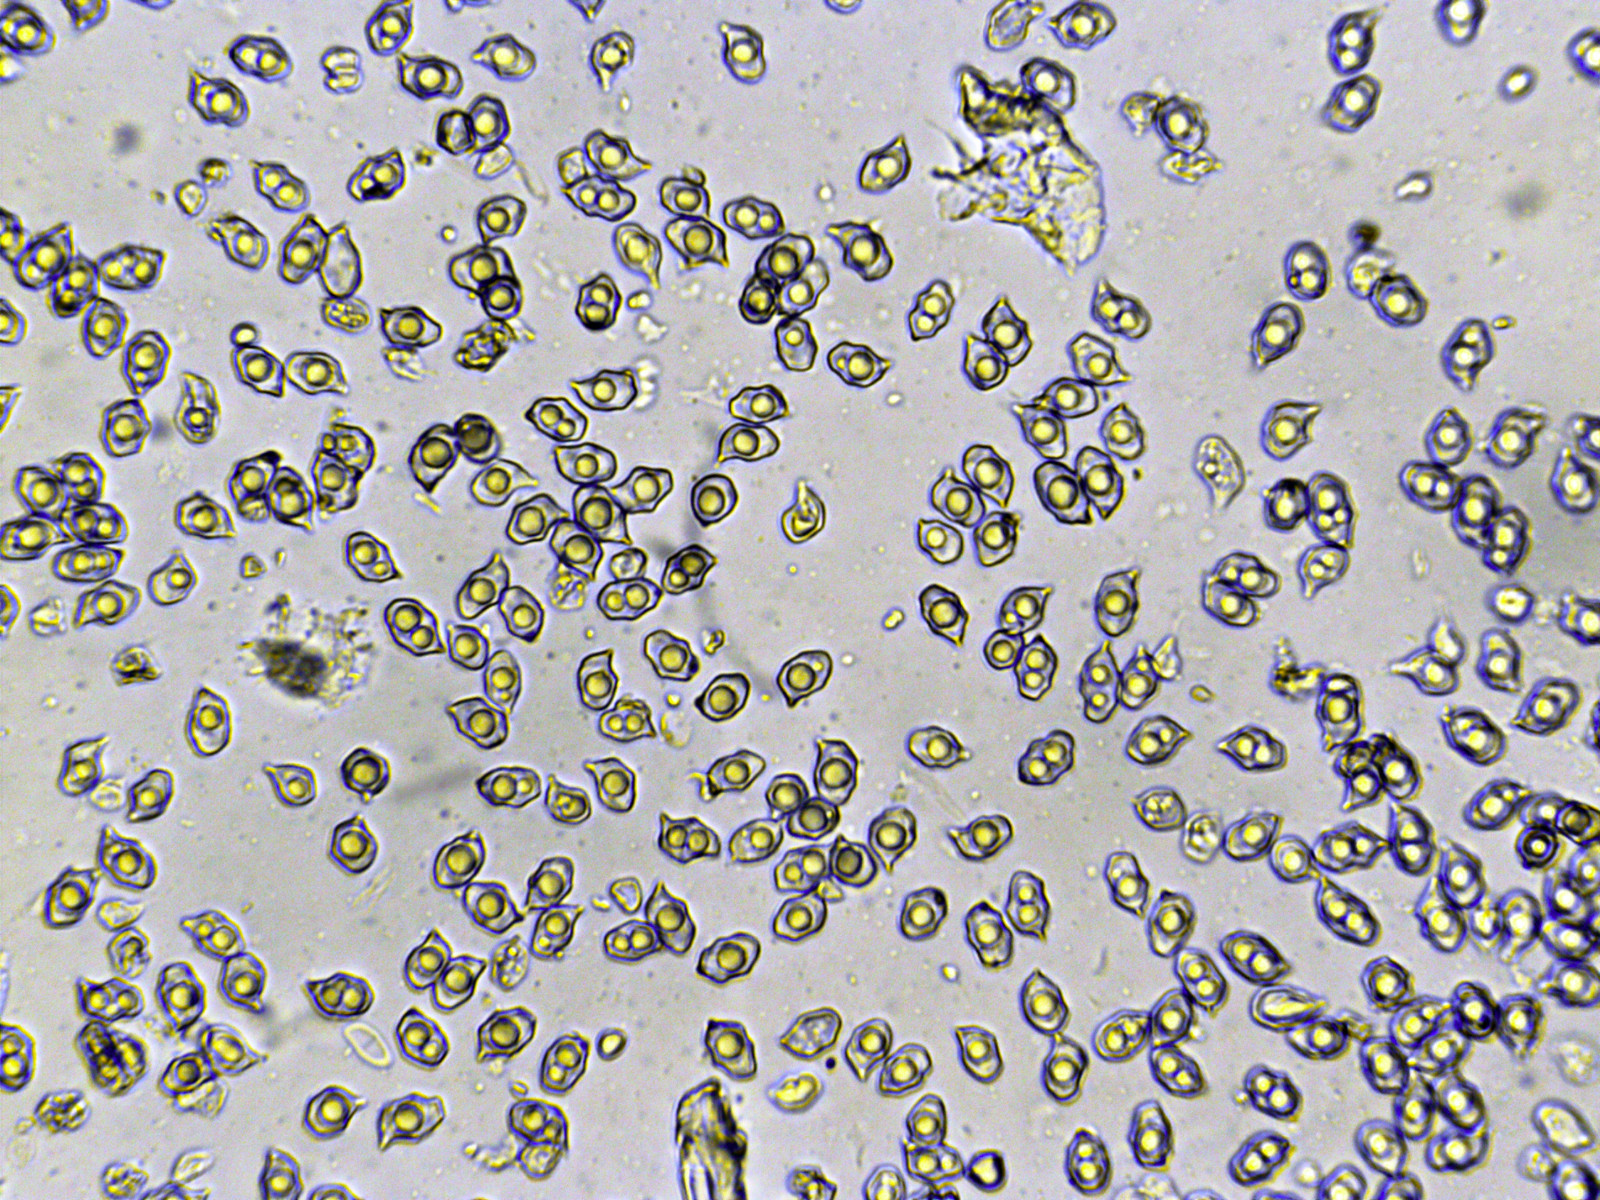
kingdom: Fungi
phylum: Basidiomycota
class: Agaricomycetes
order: Agaricales
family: Entolomataceae
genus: Entoloma
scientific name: Entoloma
